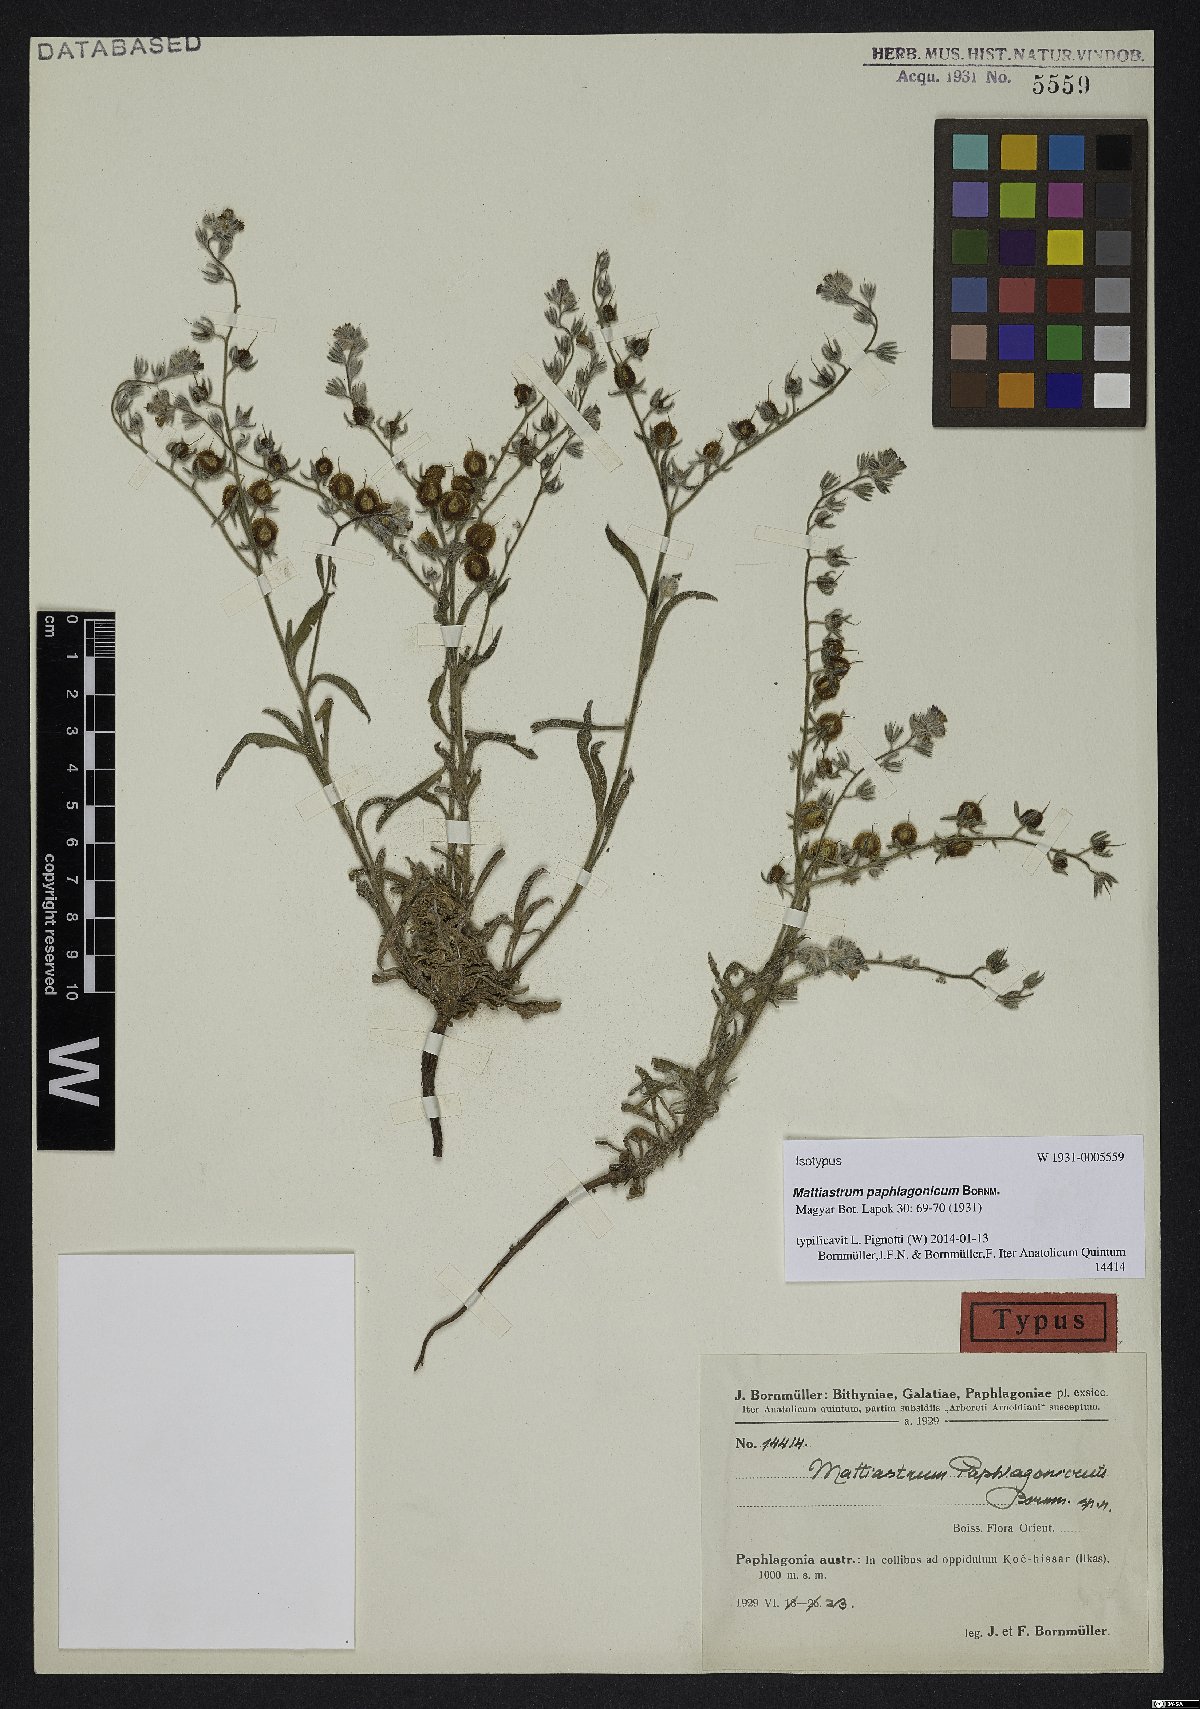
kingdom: Plantae
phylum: Tracheophyta
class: Magnoliopsida
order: Boraginales
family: Boraginaceae
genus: Paracaryum
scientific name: Paracaryum paphlagonicum
